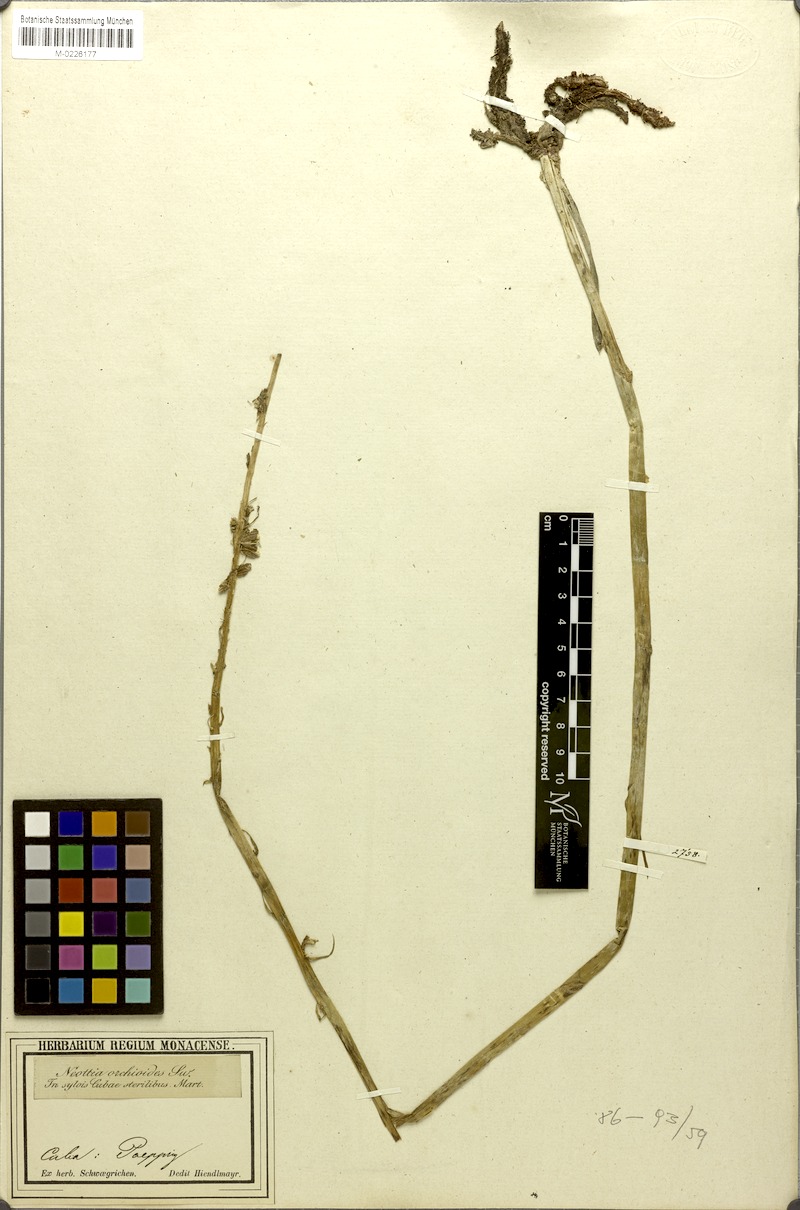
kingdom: Plantae
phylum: Tracheophyta
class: Liliopsida
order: Asparagales
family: Orchidaceae
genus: Sacoila
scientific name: Sacoila lanceolata
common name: Leafless beaked ladiestresses
